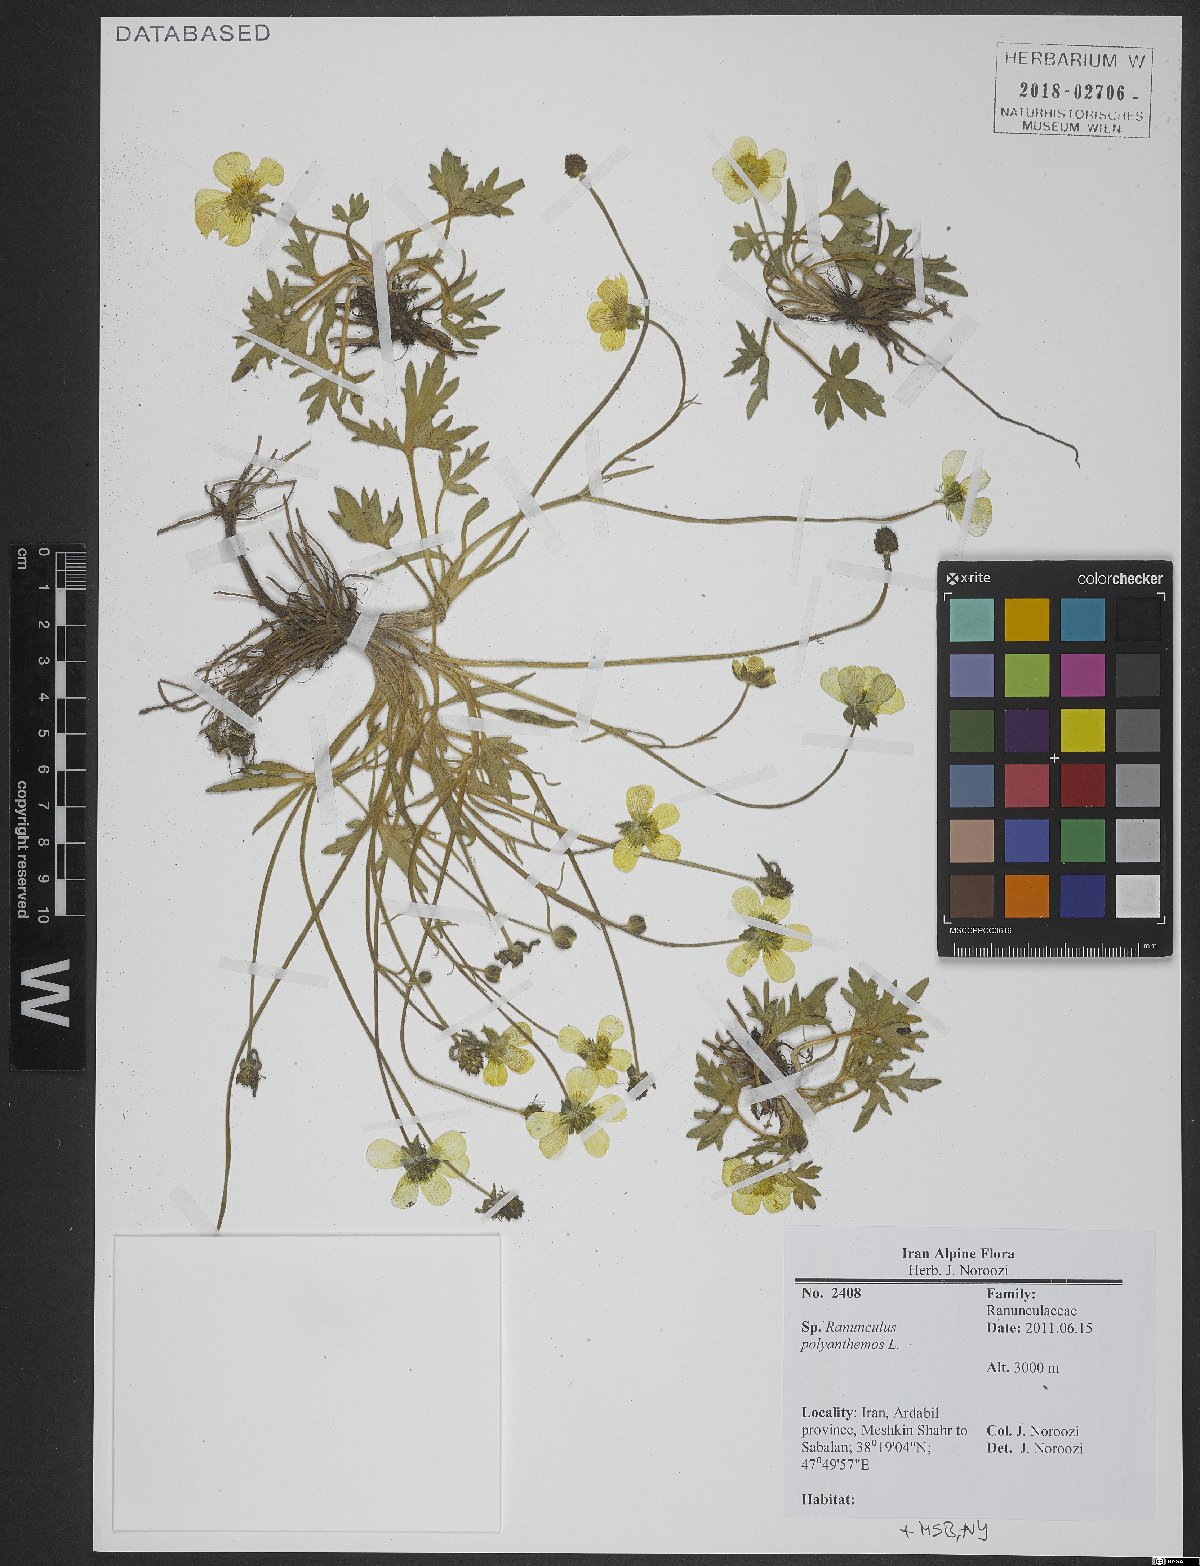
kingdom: Plantae
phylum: Tracheophyta
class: Magnoliopsida
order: Ranunculales
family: Ranunculaceae
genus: Ranunculus
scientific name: Ranunculus polyanthemos
